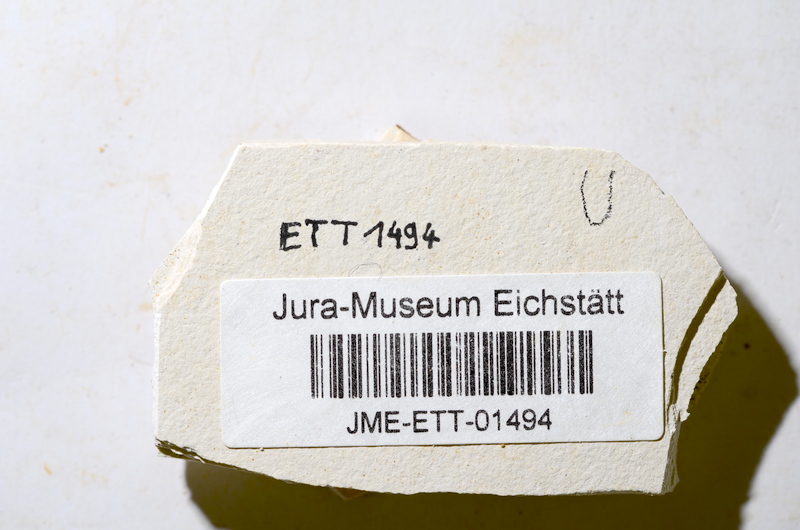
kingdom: Animalia
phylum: Chordata
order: Salmoniformes
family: Orthogonikleithridae
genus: Orthogonikleithrus
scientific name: Orthogonikleithrus
